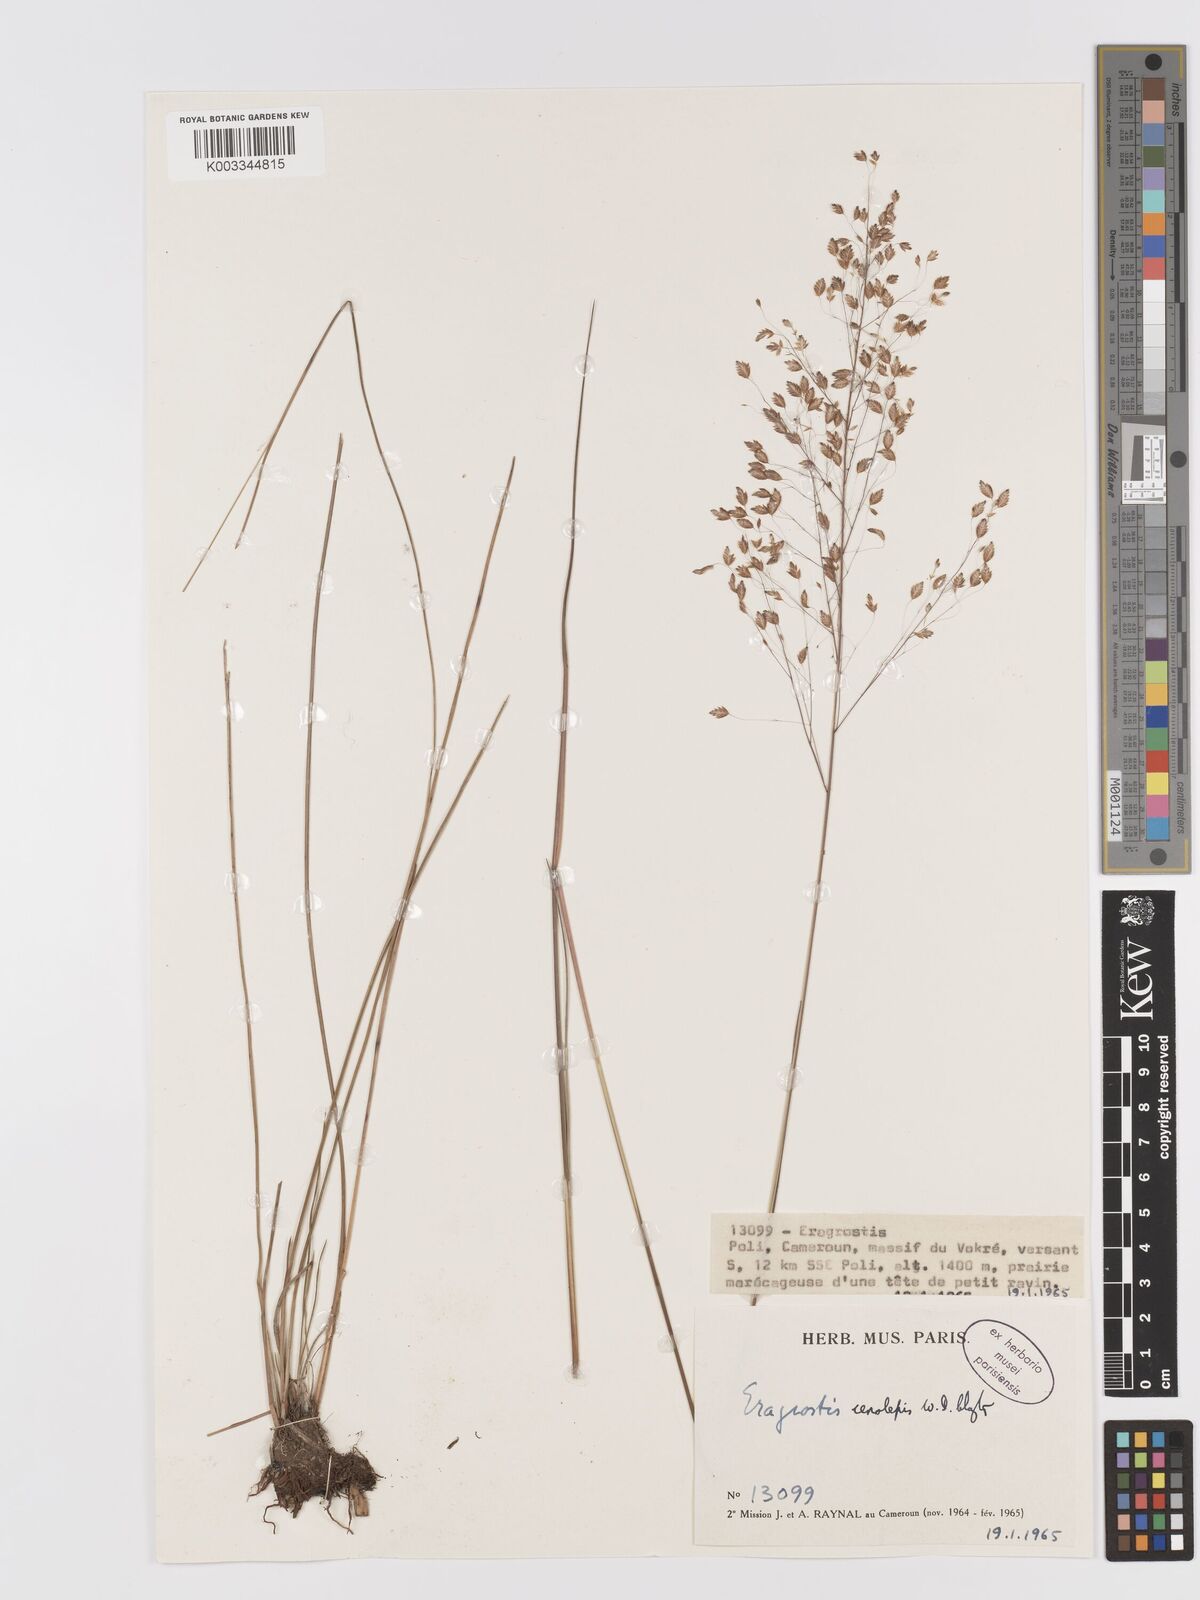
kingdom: Plantae
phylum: Tracheophyta
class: Liliopsida
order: Poales
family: Poaceae
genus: Eragrostis
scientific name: Eragrostis cenolepis
